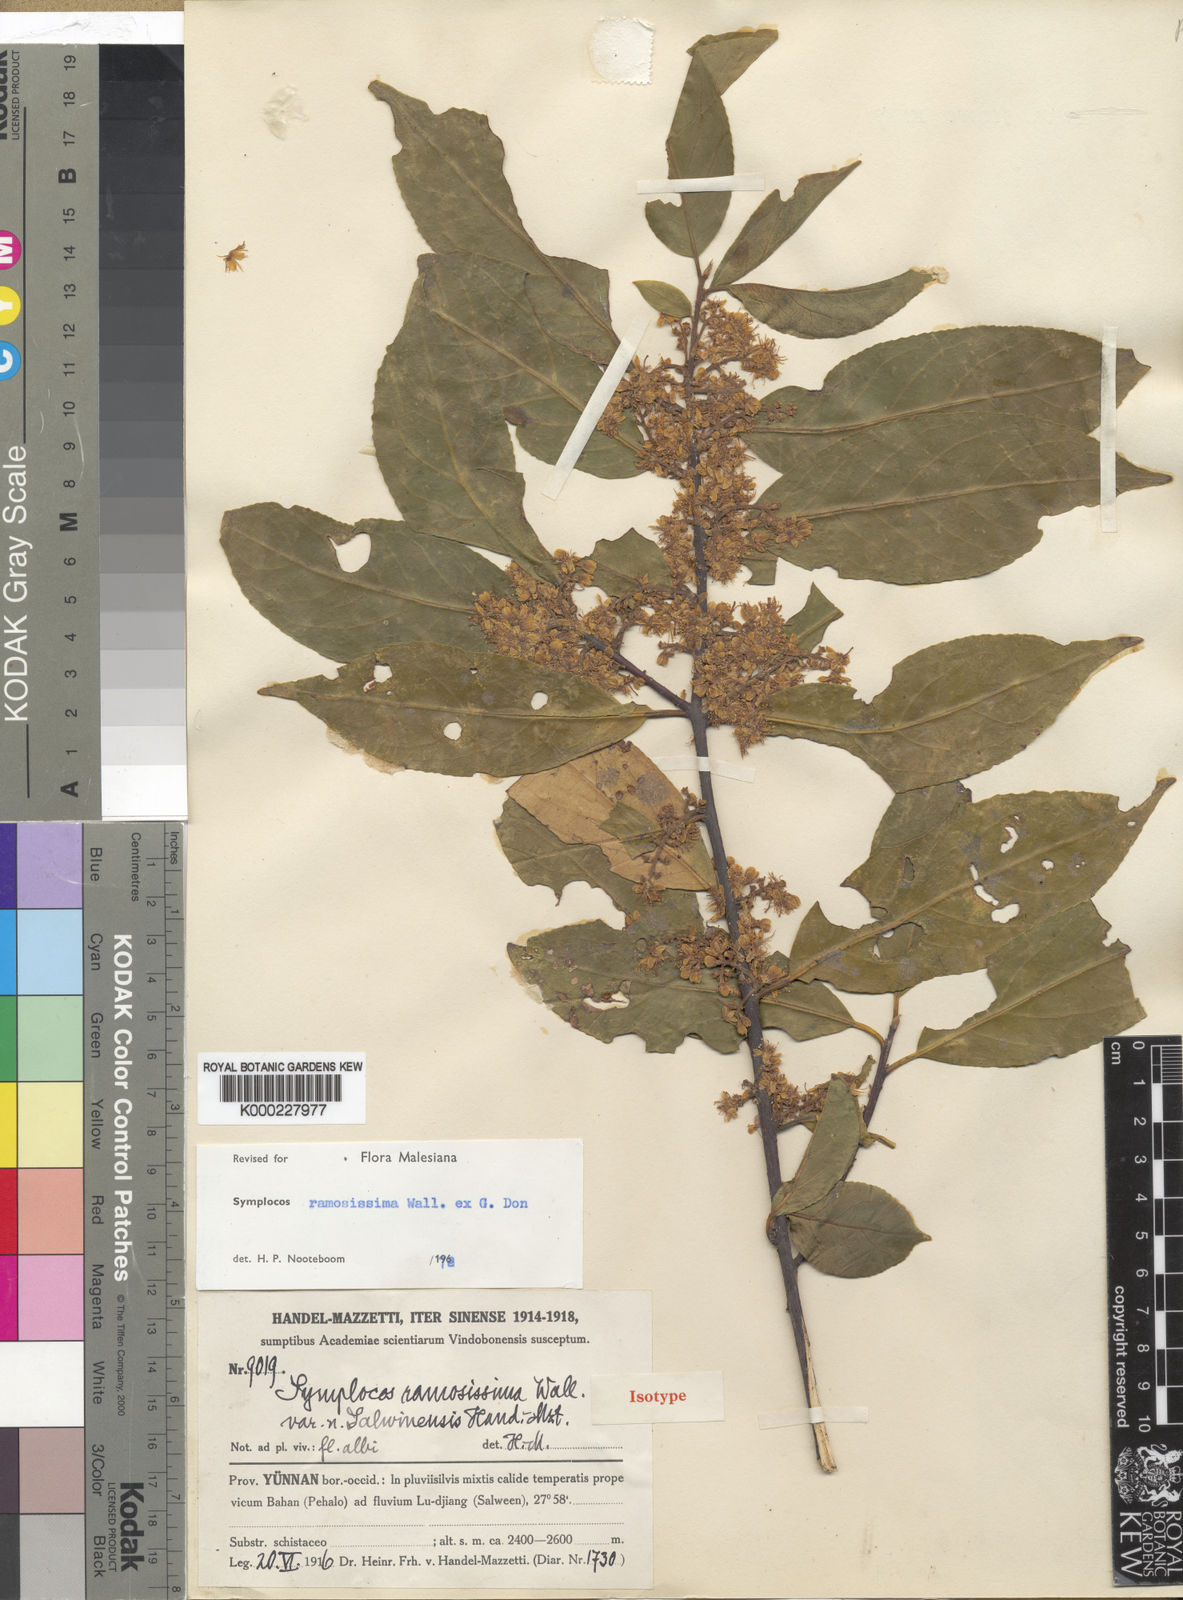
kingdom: Plantae
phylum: Tracheophyta
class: Magnoliopsida
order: Ericales
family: Symplocaceae
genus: Symplocos
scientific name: Symplocos ramosissima
